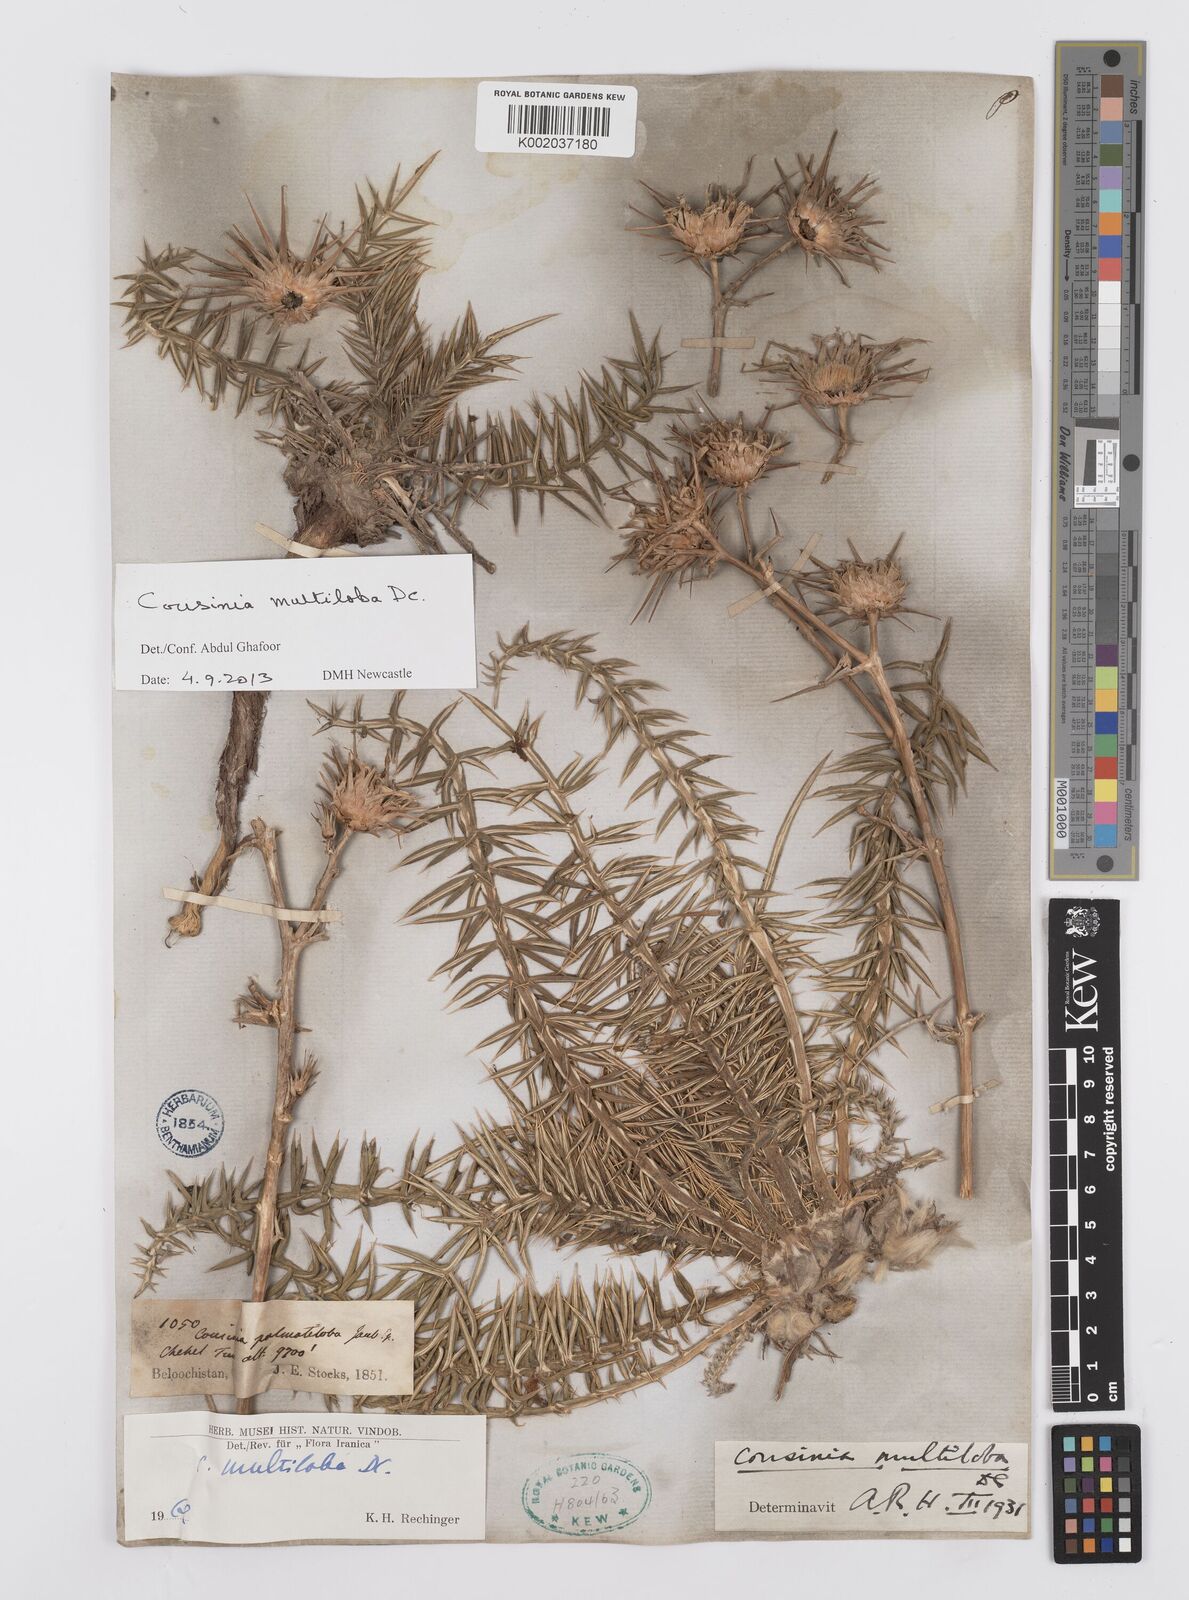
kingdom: Plantae
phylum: Tracheophyta
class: Magnoliopsida
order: Asterales
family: Asteraceae
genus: Cousinia
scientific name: Cousinia multiloba
